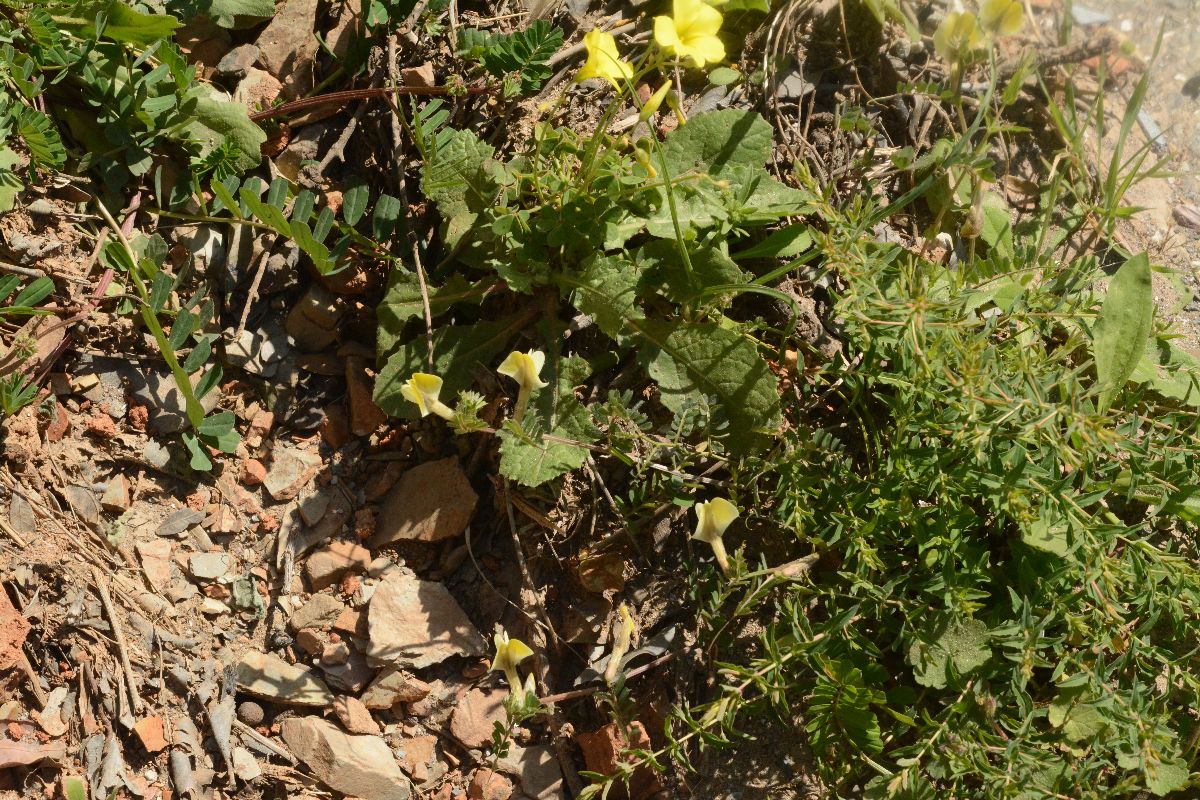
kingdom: Plantae
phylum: Tracheophyta
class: Magnoliopsida
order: Fabales
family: Fabaceae
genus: Vicia
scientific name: Vicia hybrida
